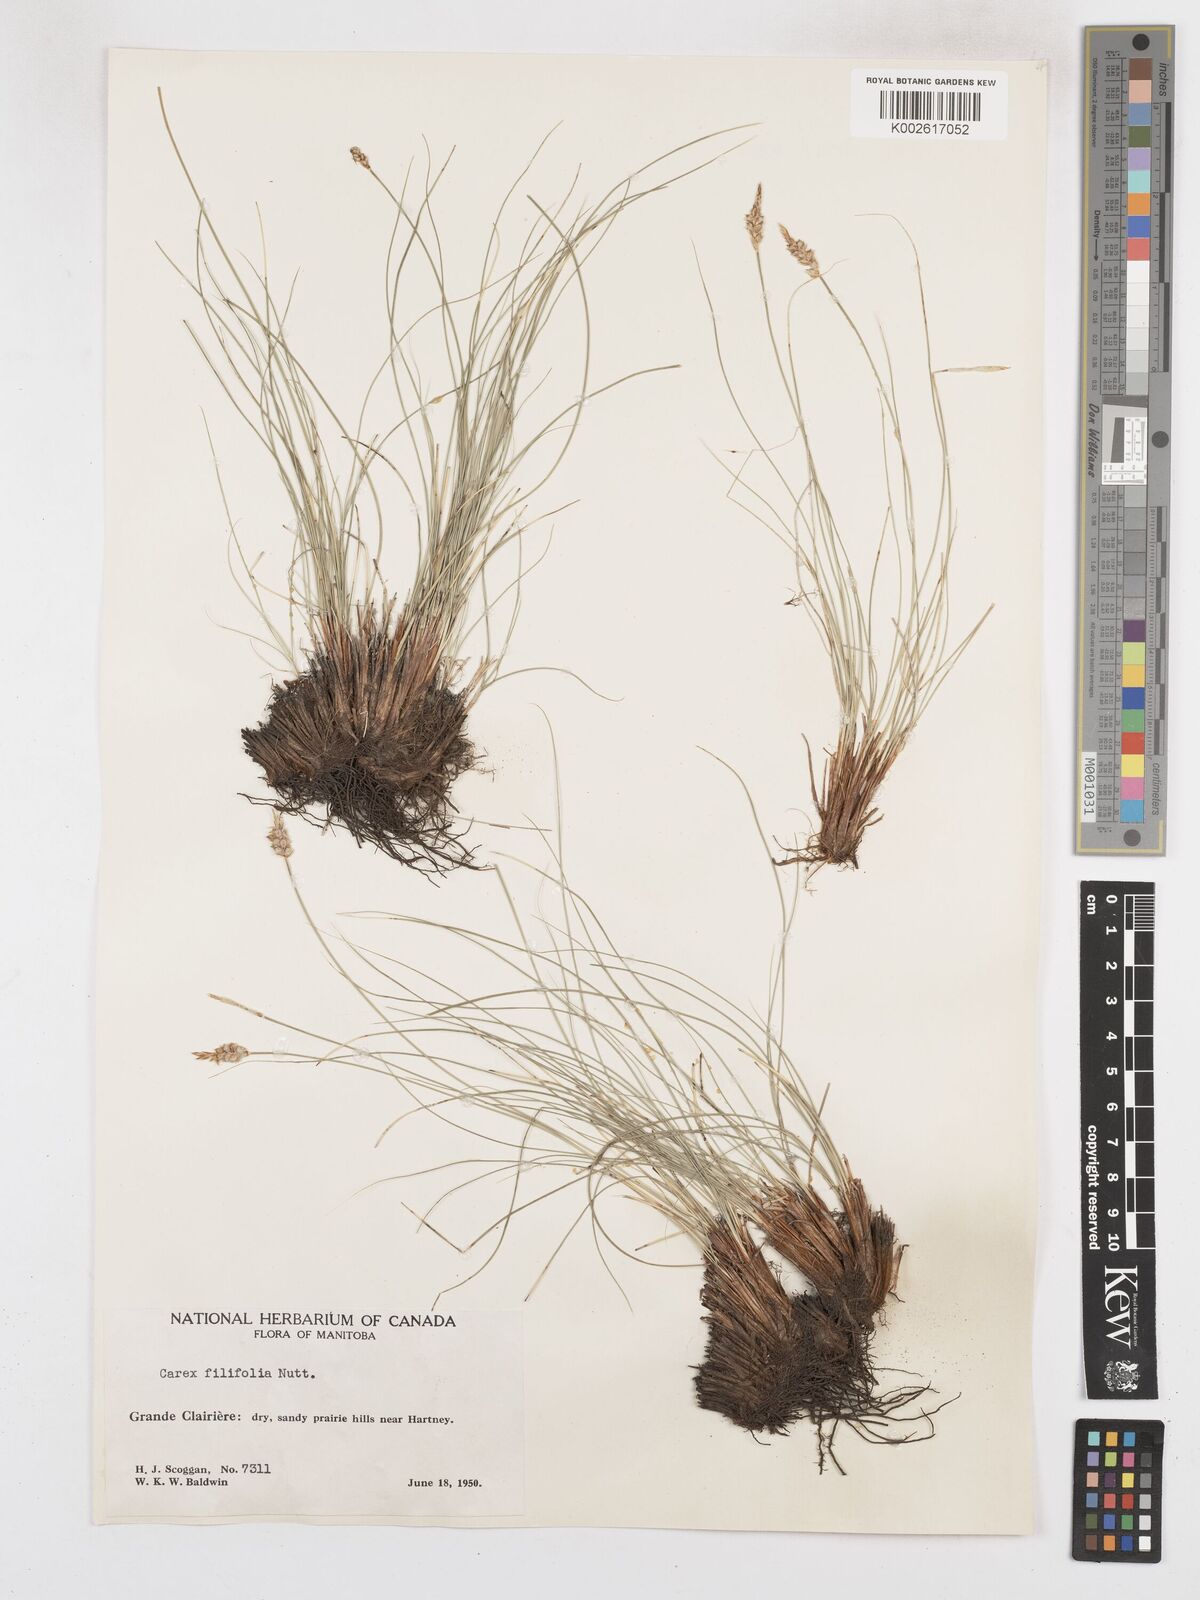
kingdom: Plantae
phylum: Tracheophyta
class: Liliopsida
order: Poales
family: Cyperaceae
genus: Carex
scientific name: Carex filifolia
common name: Threadleaf sedge
